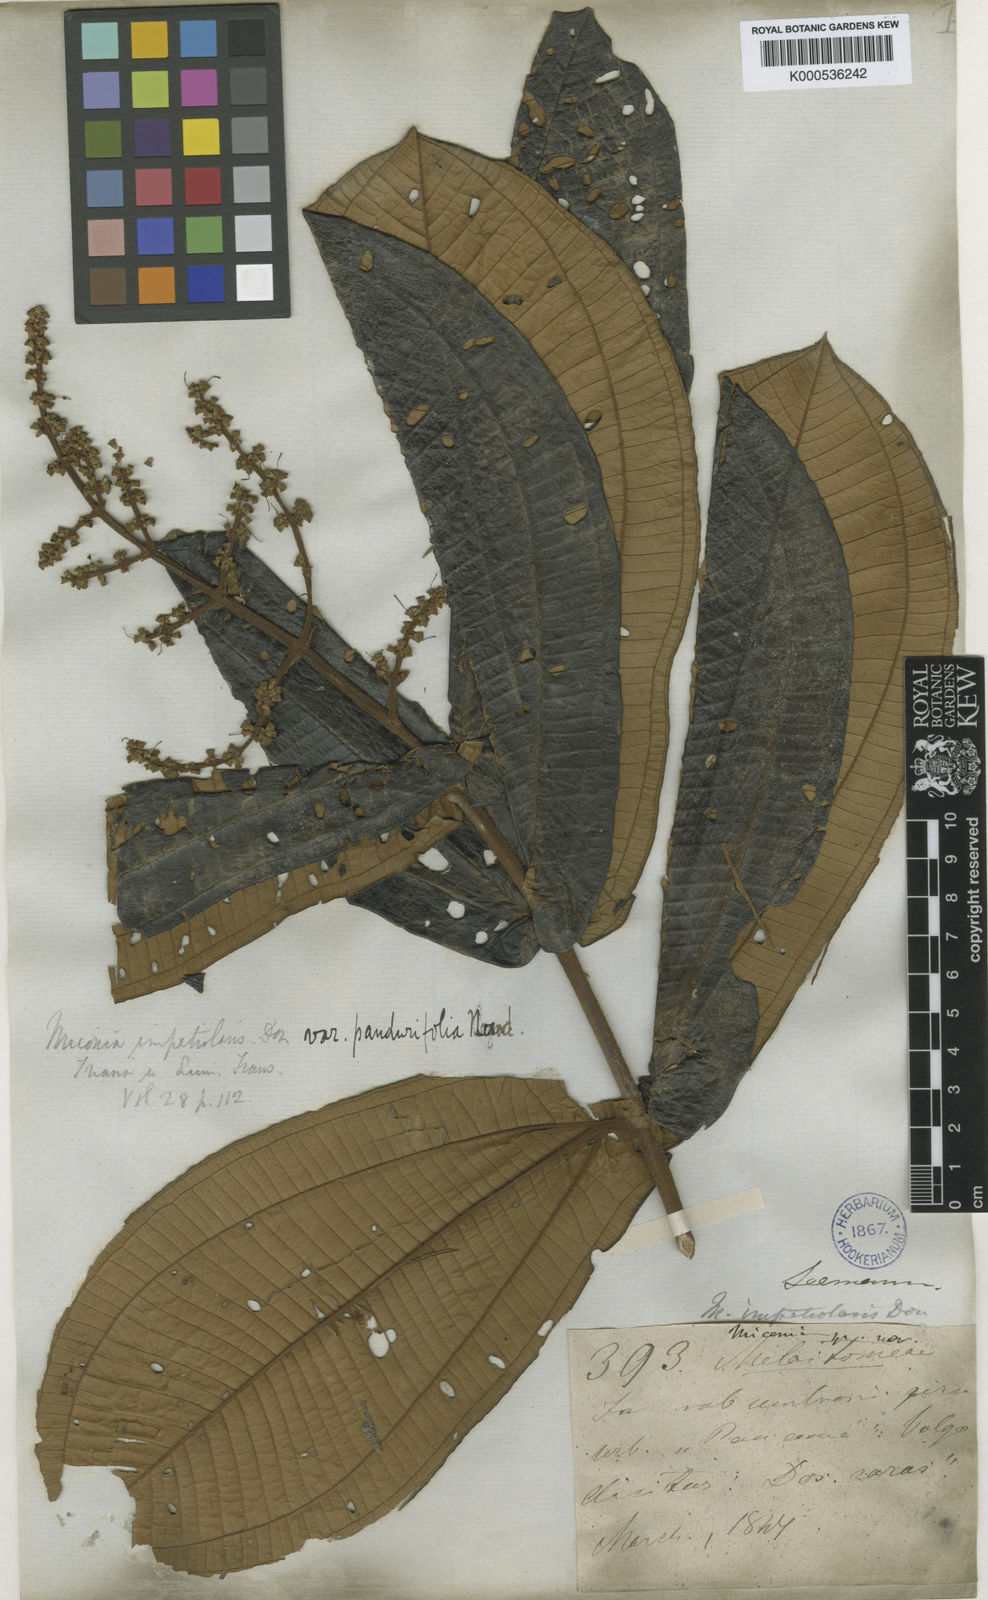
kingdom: Plantae
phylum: Tracheophyta
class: Magnoliopsida
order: Myrtales
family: Melastomataceae
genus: Miconia
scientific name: Miconia impetiolaris
